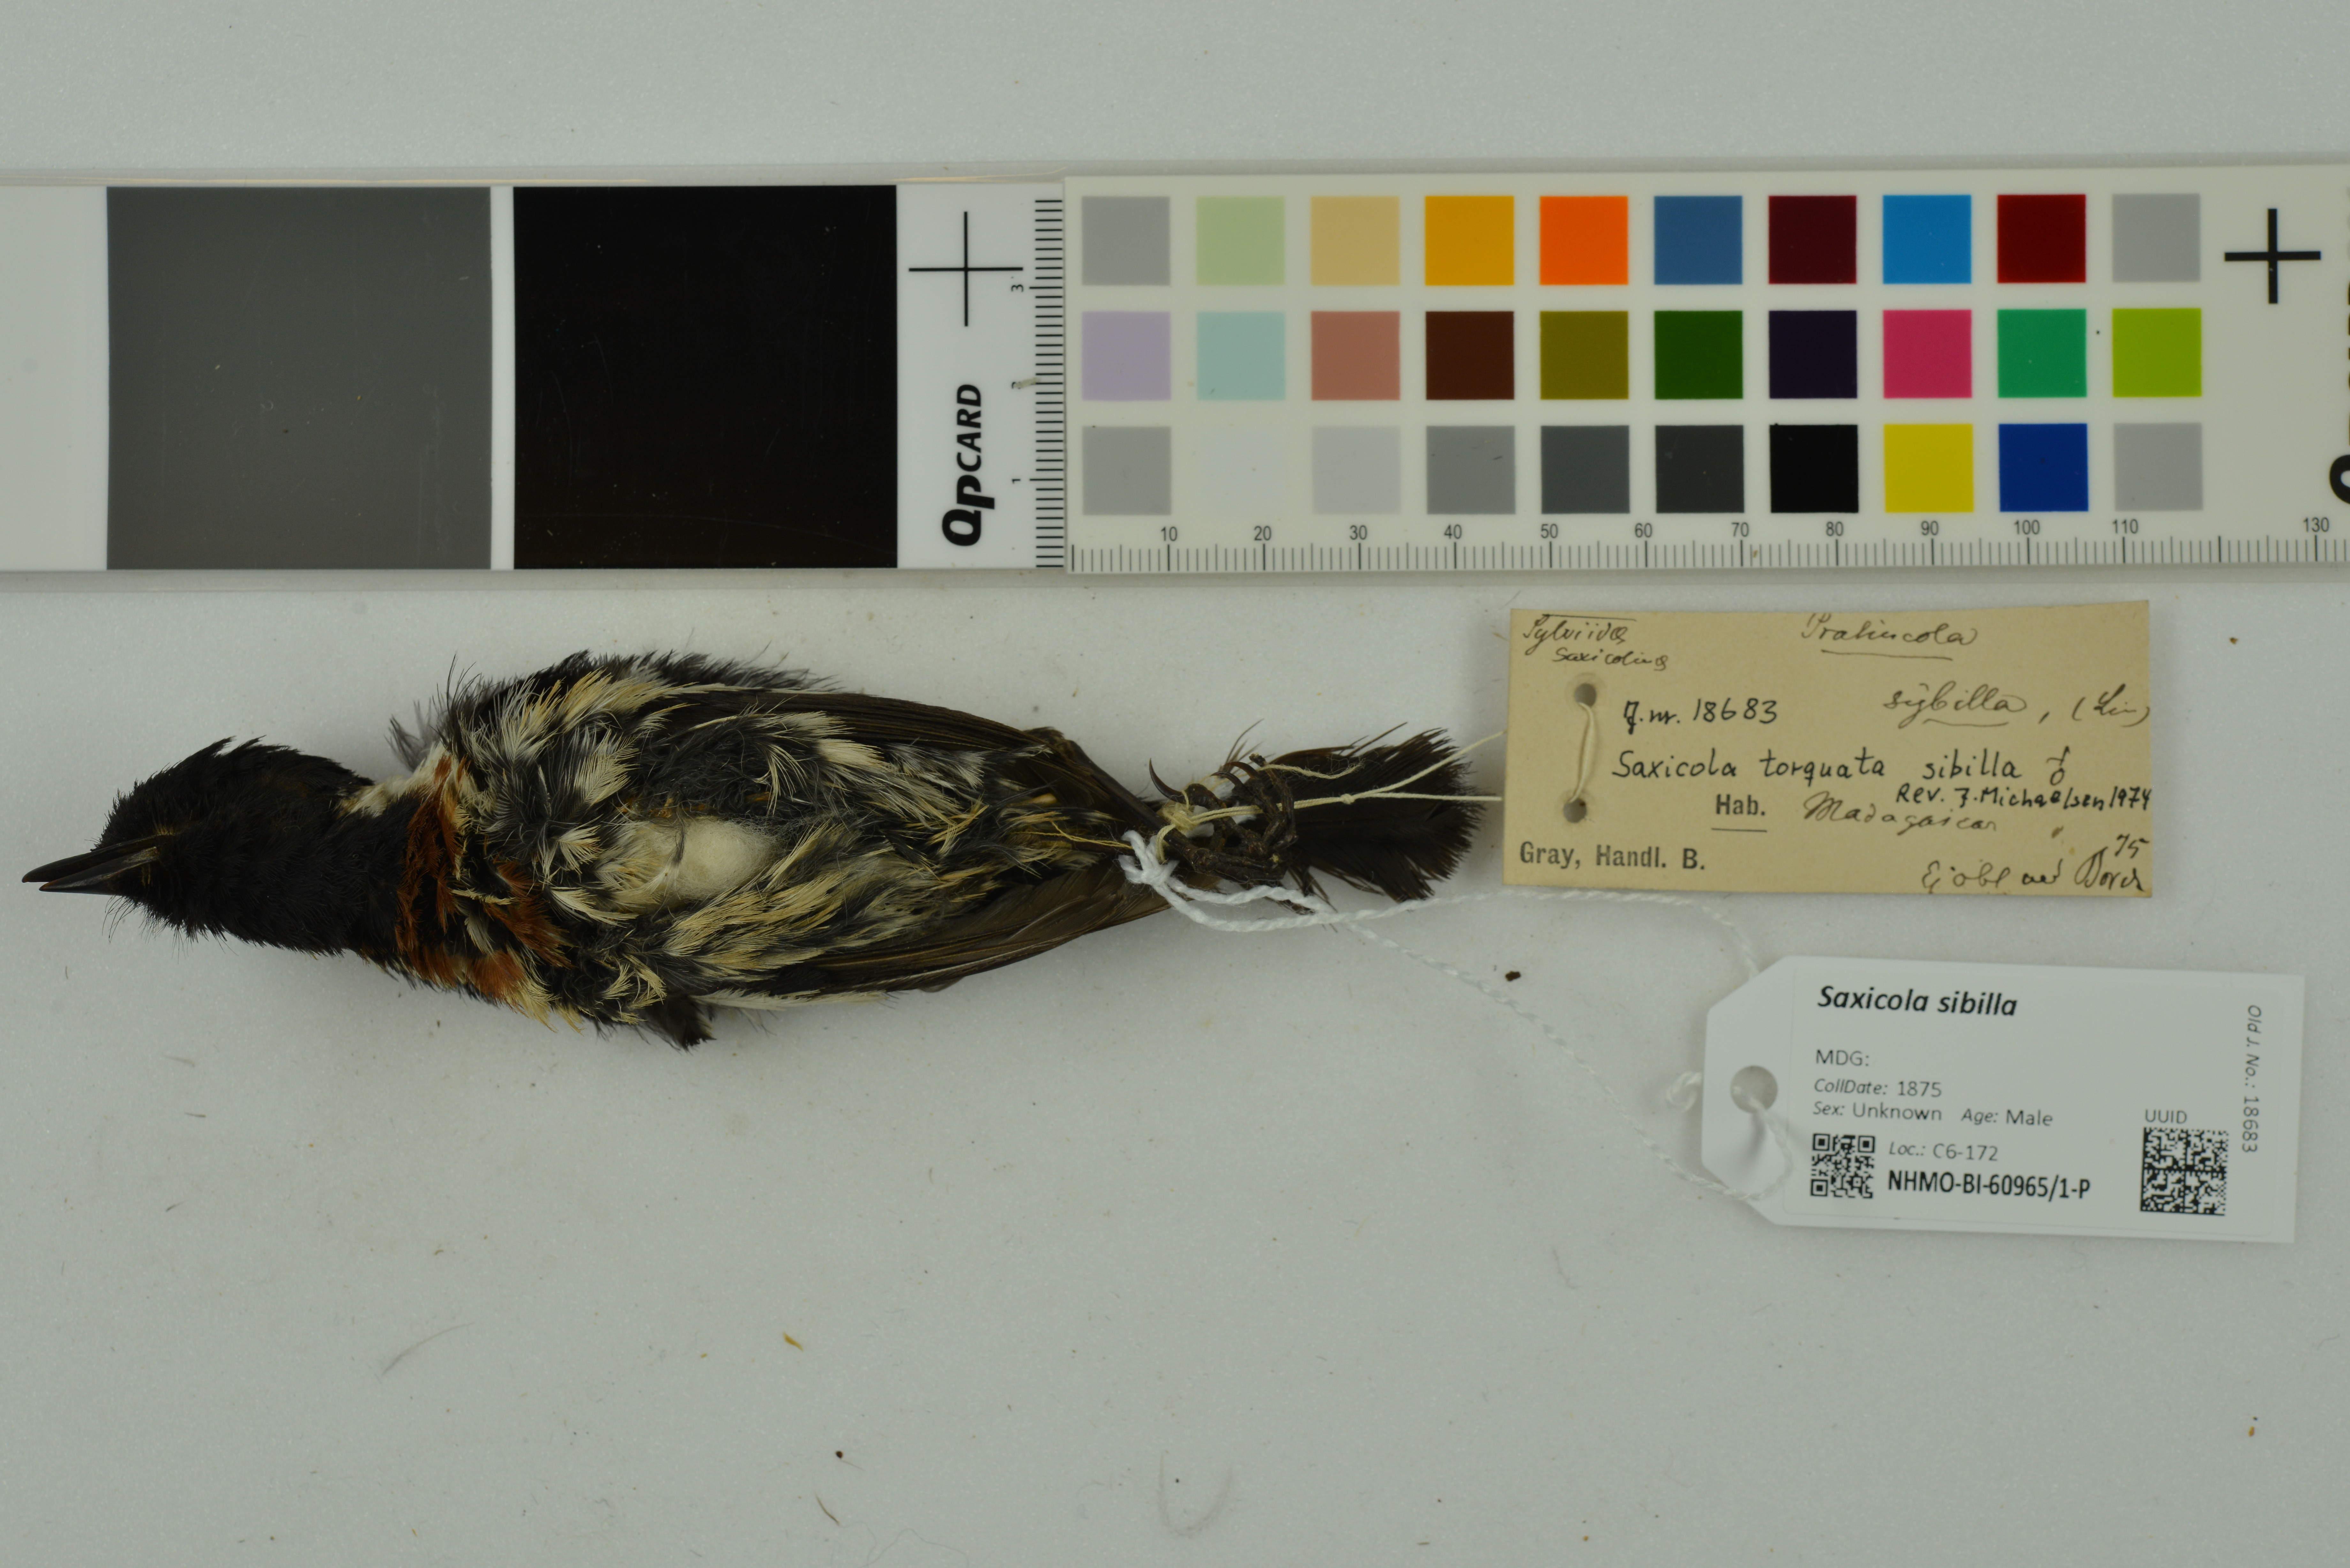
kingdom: Animalia
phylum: Chordata
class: Aves
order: Passeriformes
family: Muscicapidae
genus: Saxicola
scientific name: Saxicola sibilla
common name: Madagascan stonechat
